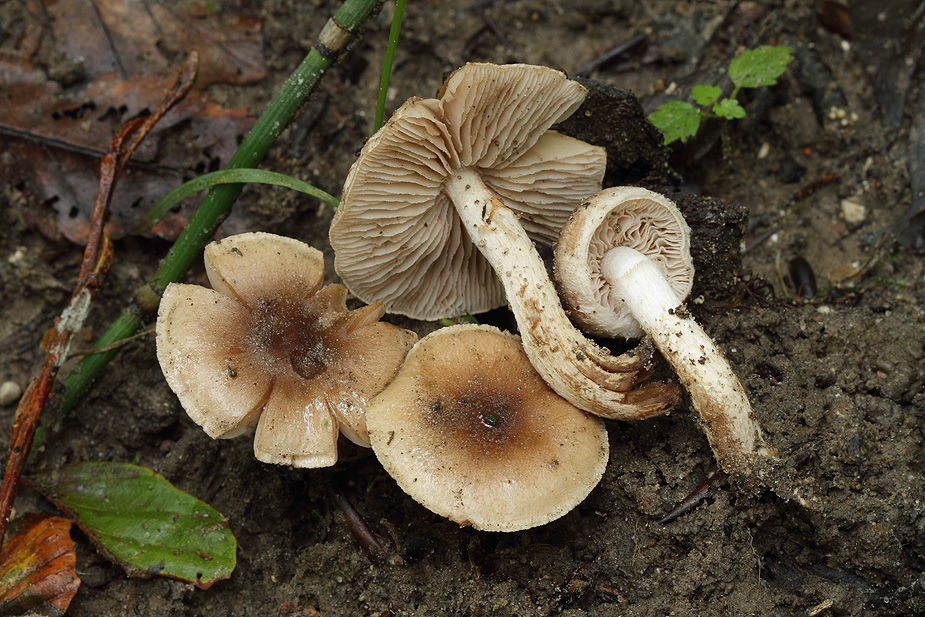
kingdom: Fungi
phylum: Basidiomycota
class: Agaricomycetes
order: Agaricales
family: Hymenogastraceae
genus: Hebeloma
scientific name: Hebeloma mesophaeum
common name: lerbrun tåreblad
